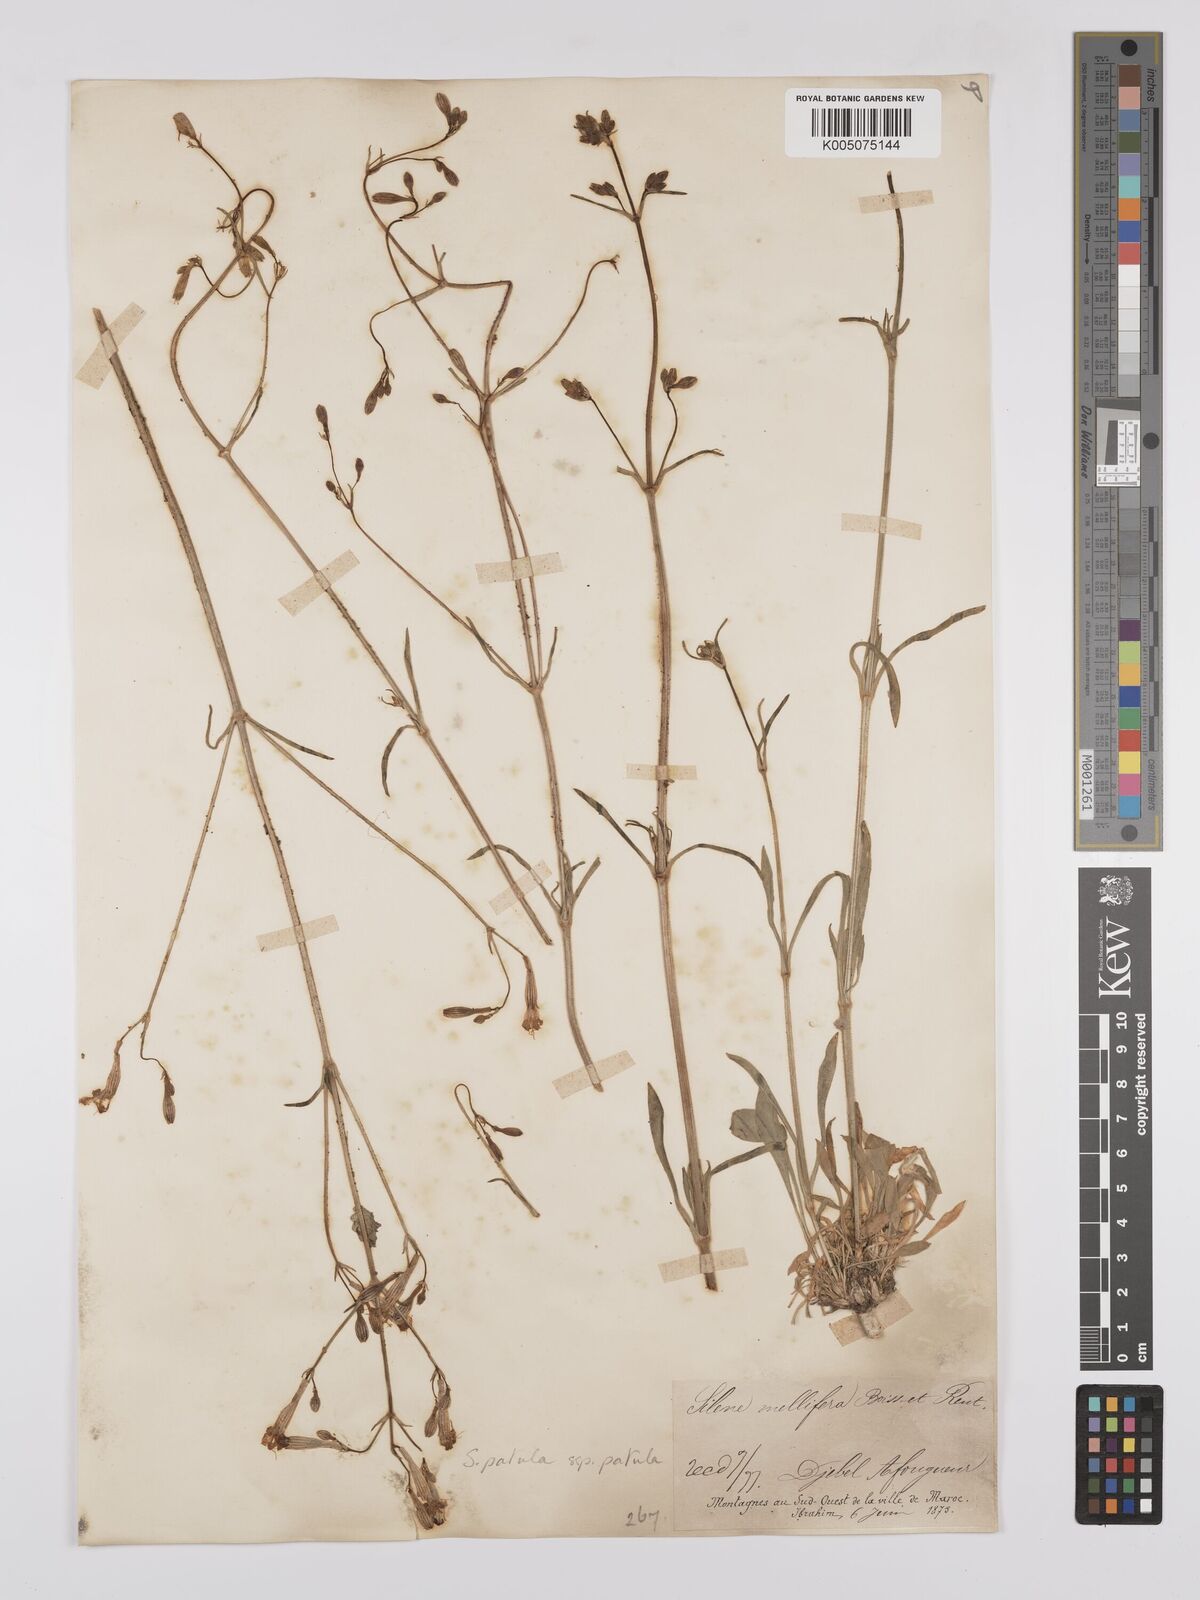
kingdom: Plantae
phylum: Tracheophyta
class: Magnoliopsida
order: Caryophyllales
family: Caryophyllaceae
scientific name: Caryophyllaceae
